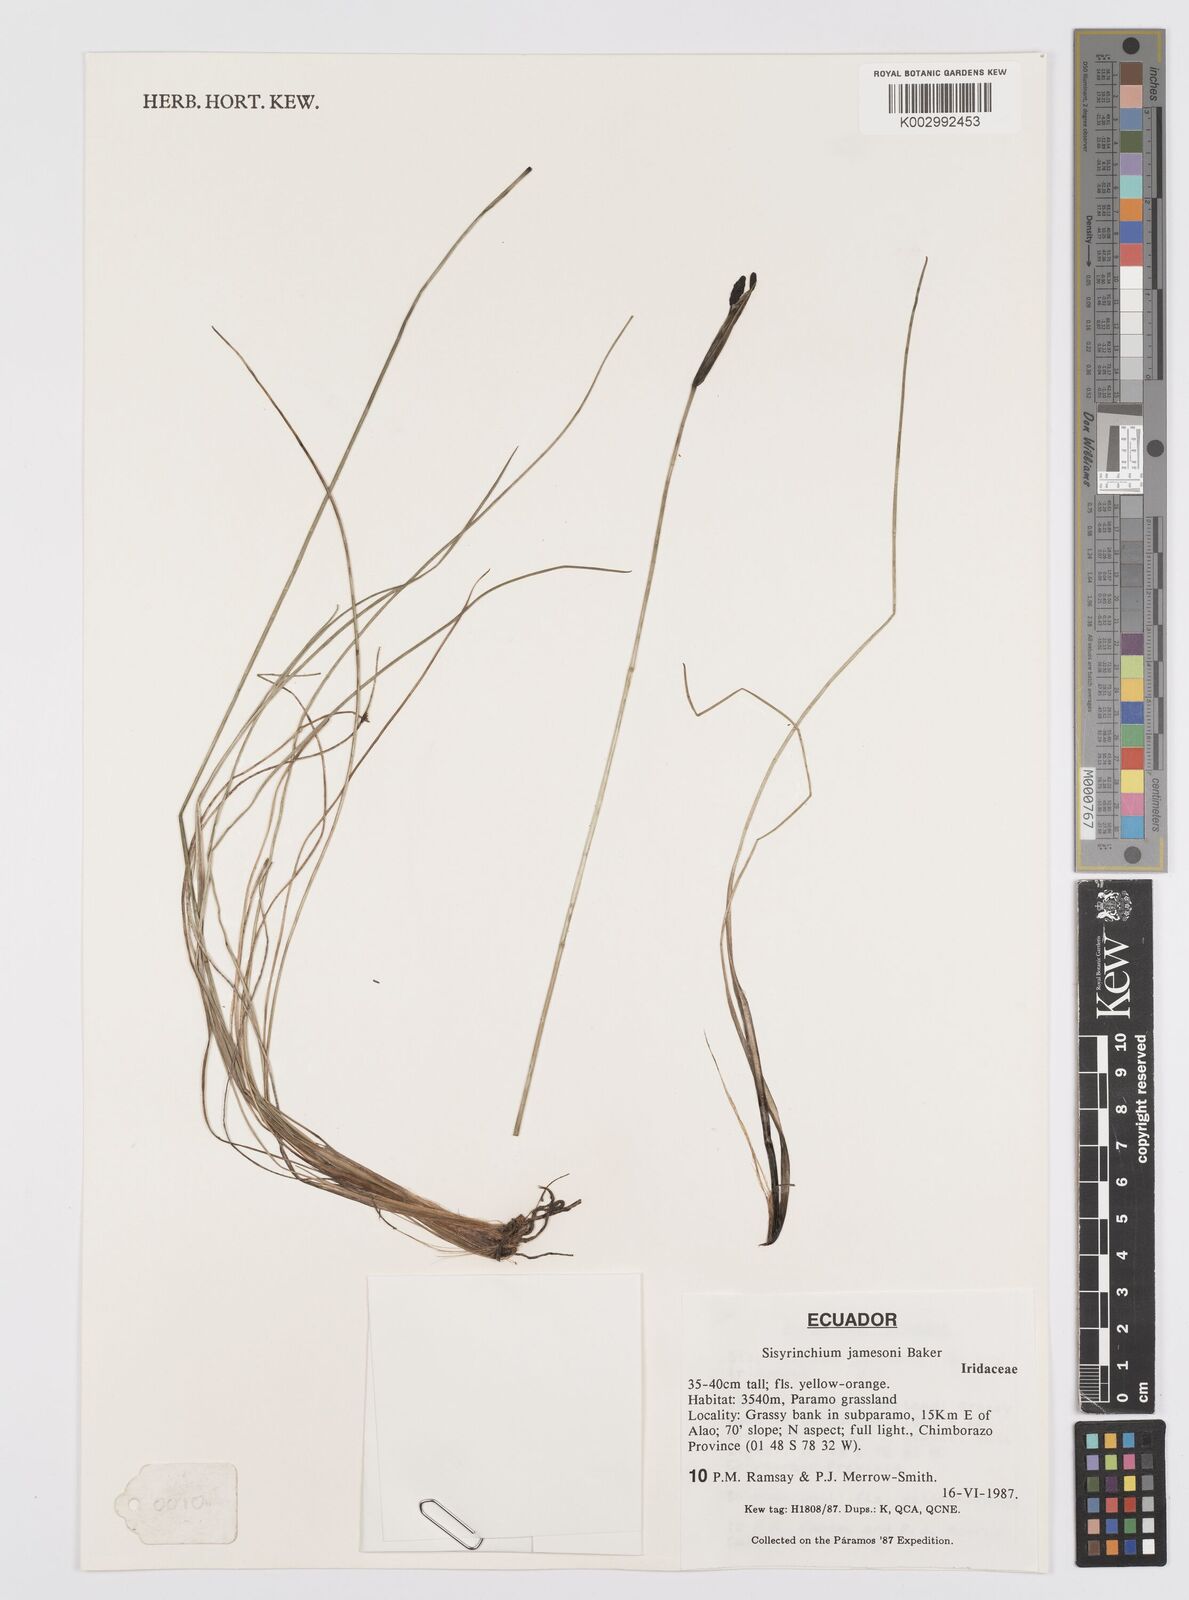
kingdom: Plantae
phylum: Tracheophyta
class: Liliopsida
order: Asparagales
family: Iridaceae
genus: Sisyrinchium
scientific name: Sisyrinchium jamesonii
